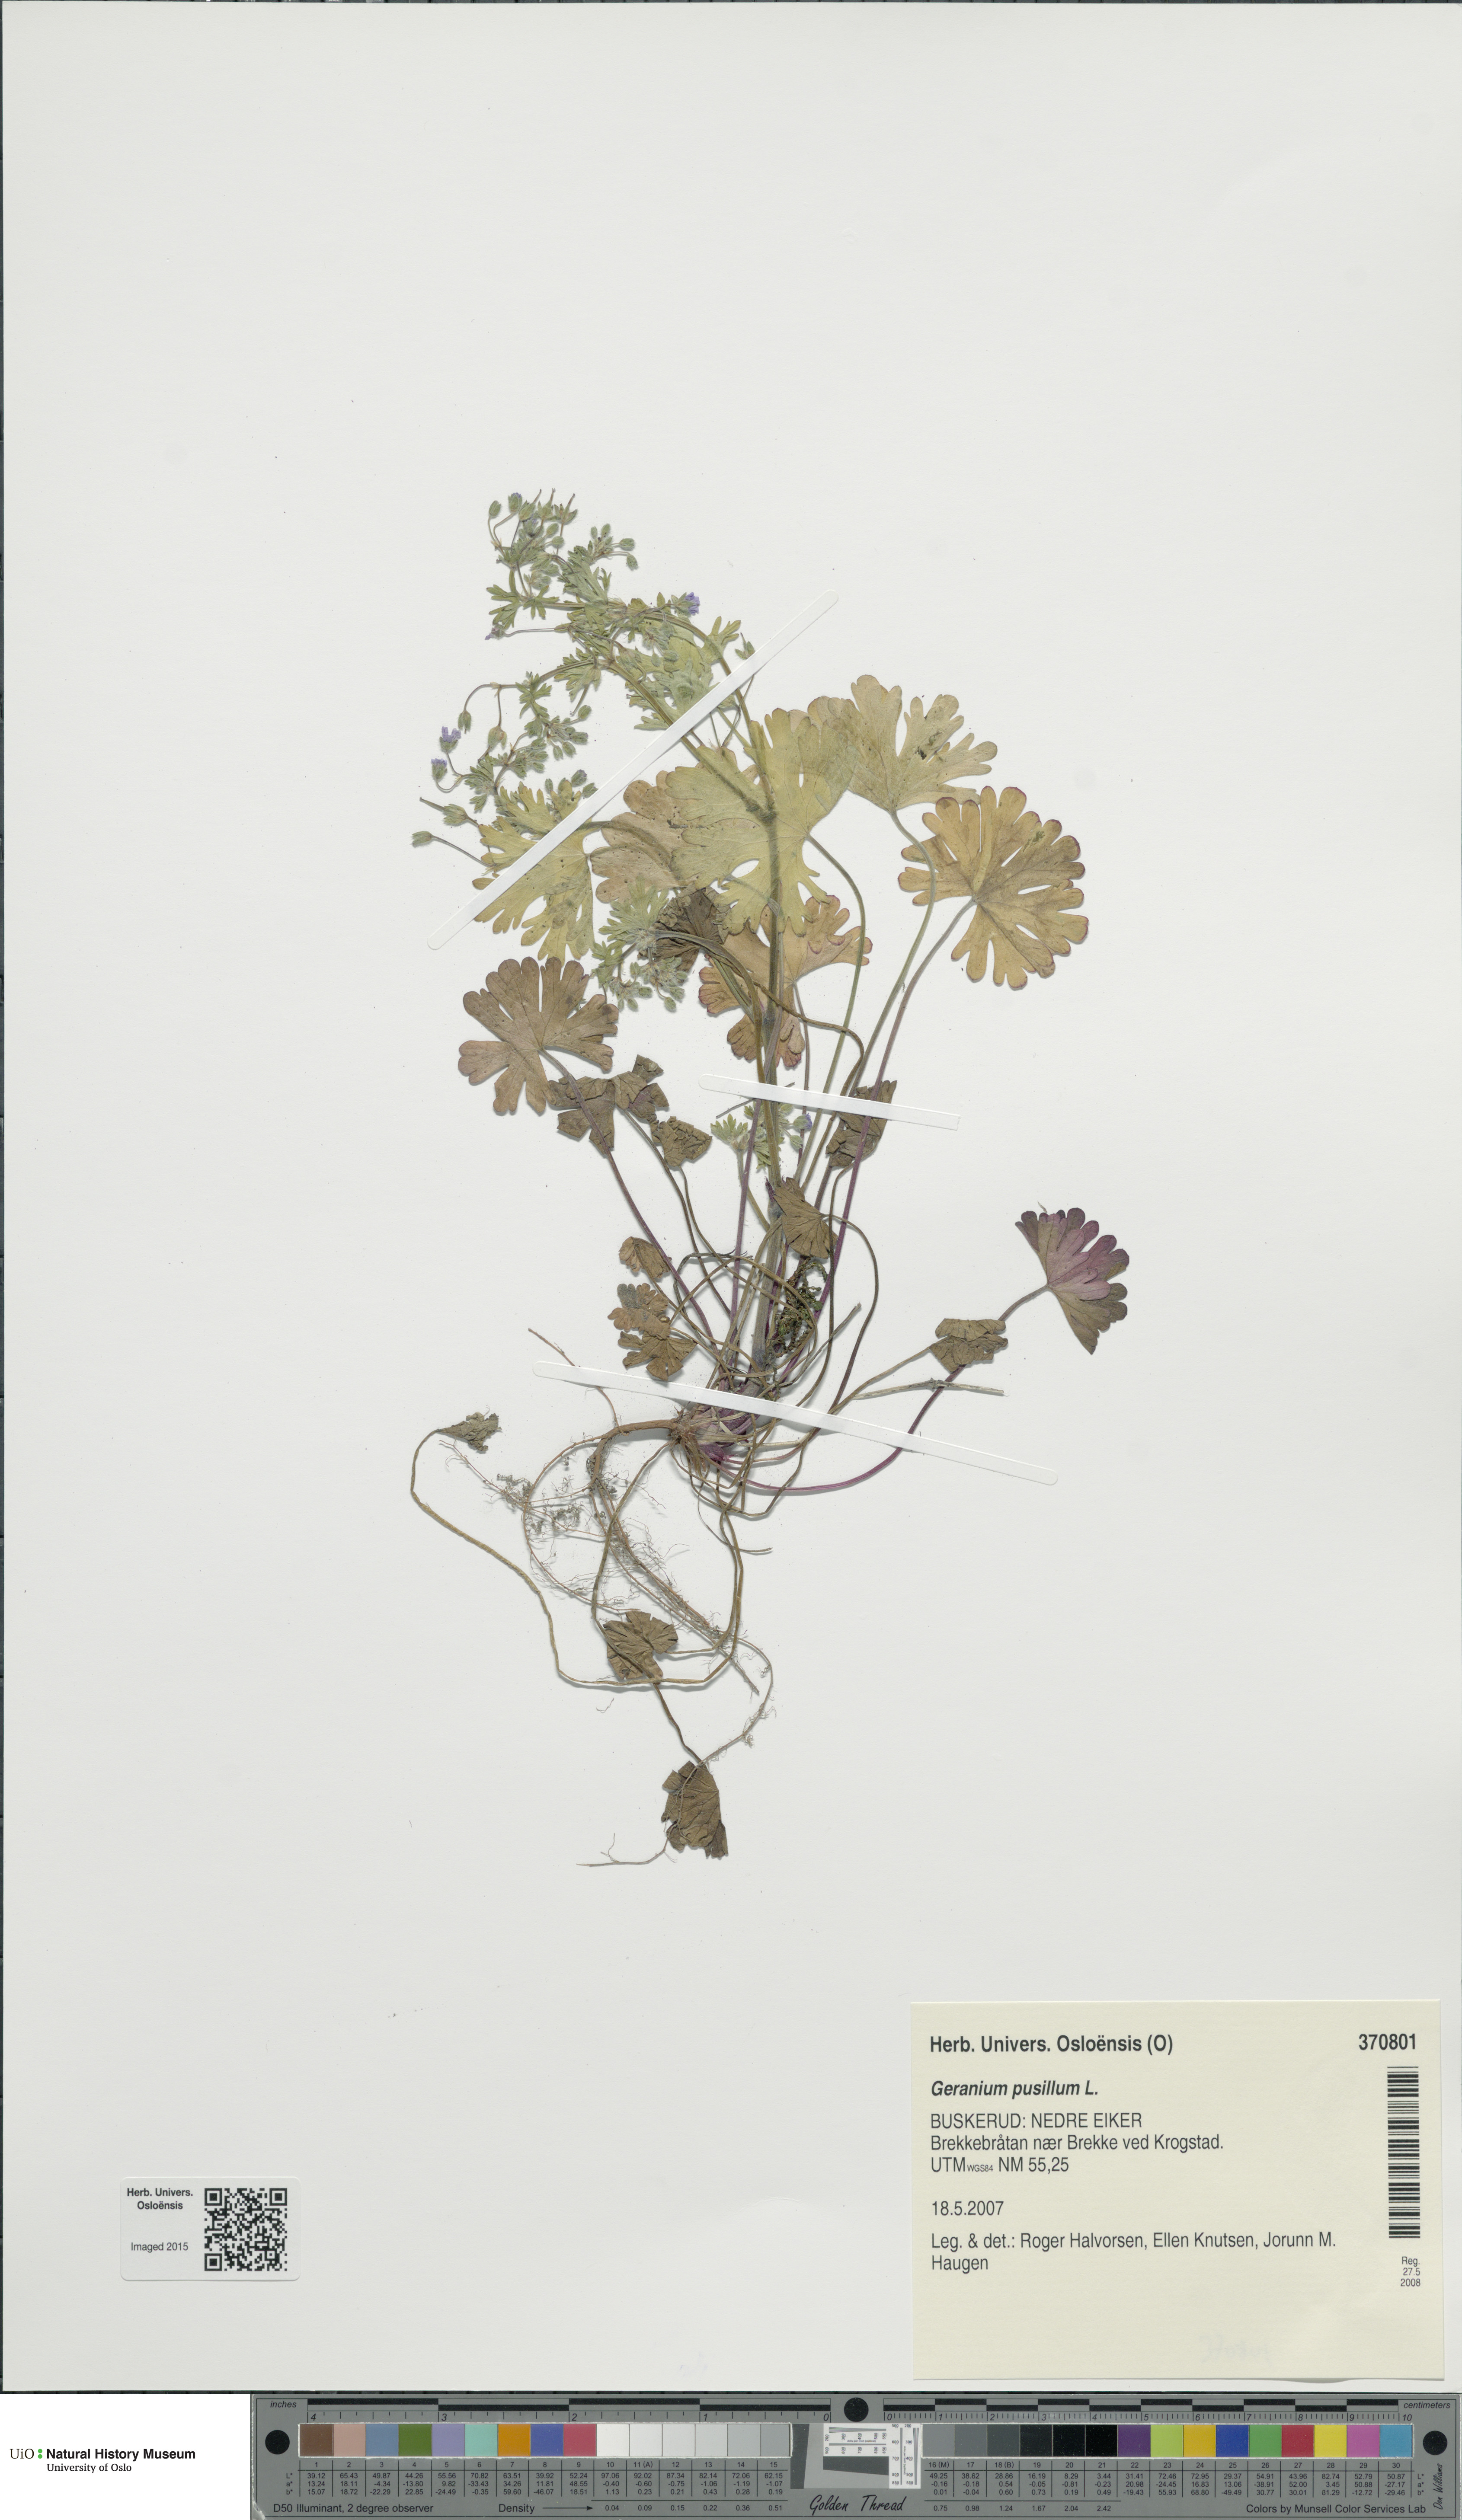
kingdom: Plantae
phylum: Tracheophyta
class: Magnoliopsida
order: Geraniales
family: Geraniaceae
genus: Geranium
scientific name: Geranium pusillum
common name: Small geranium
